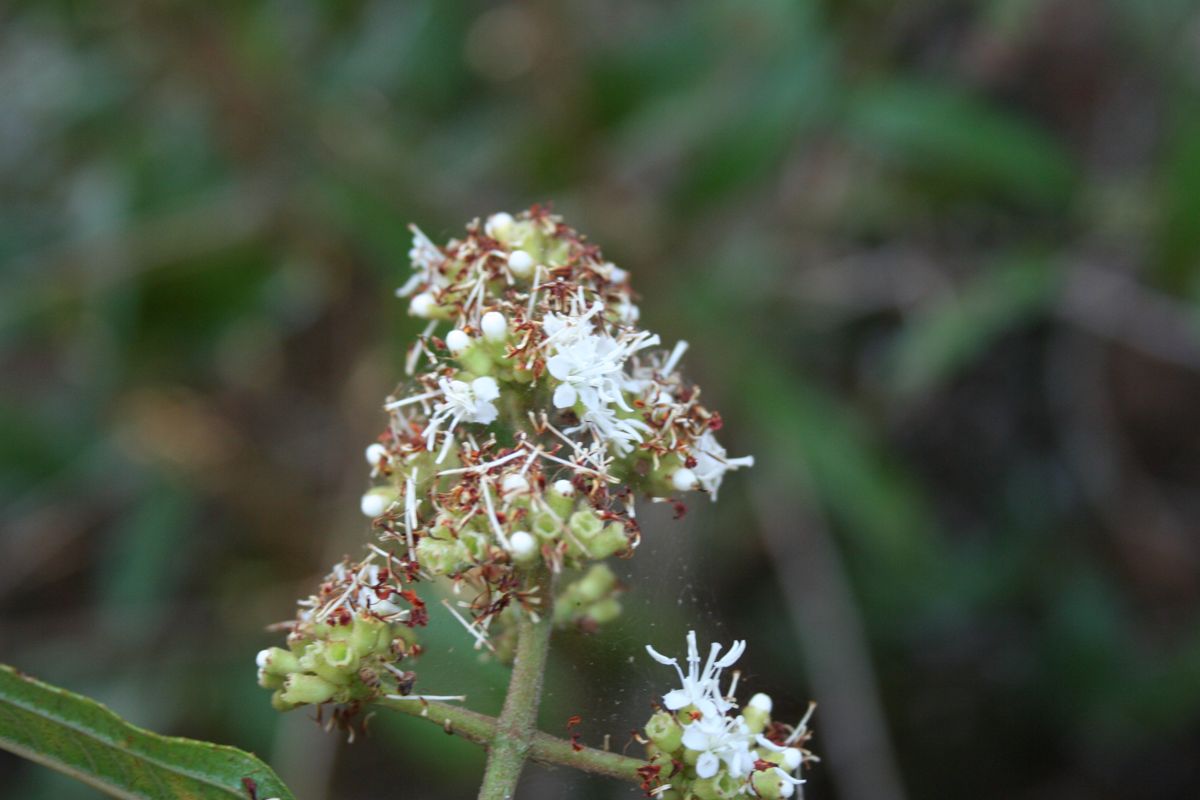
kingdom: Plantae
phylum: Tracheophyta
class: Magnoliopsida
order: Fagales
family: Myricaceae
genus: Morella
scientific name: Morella cerifera
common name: Wax myrtle
